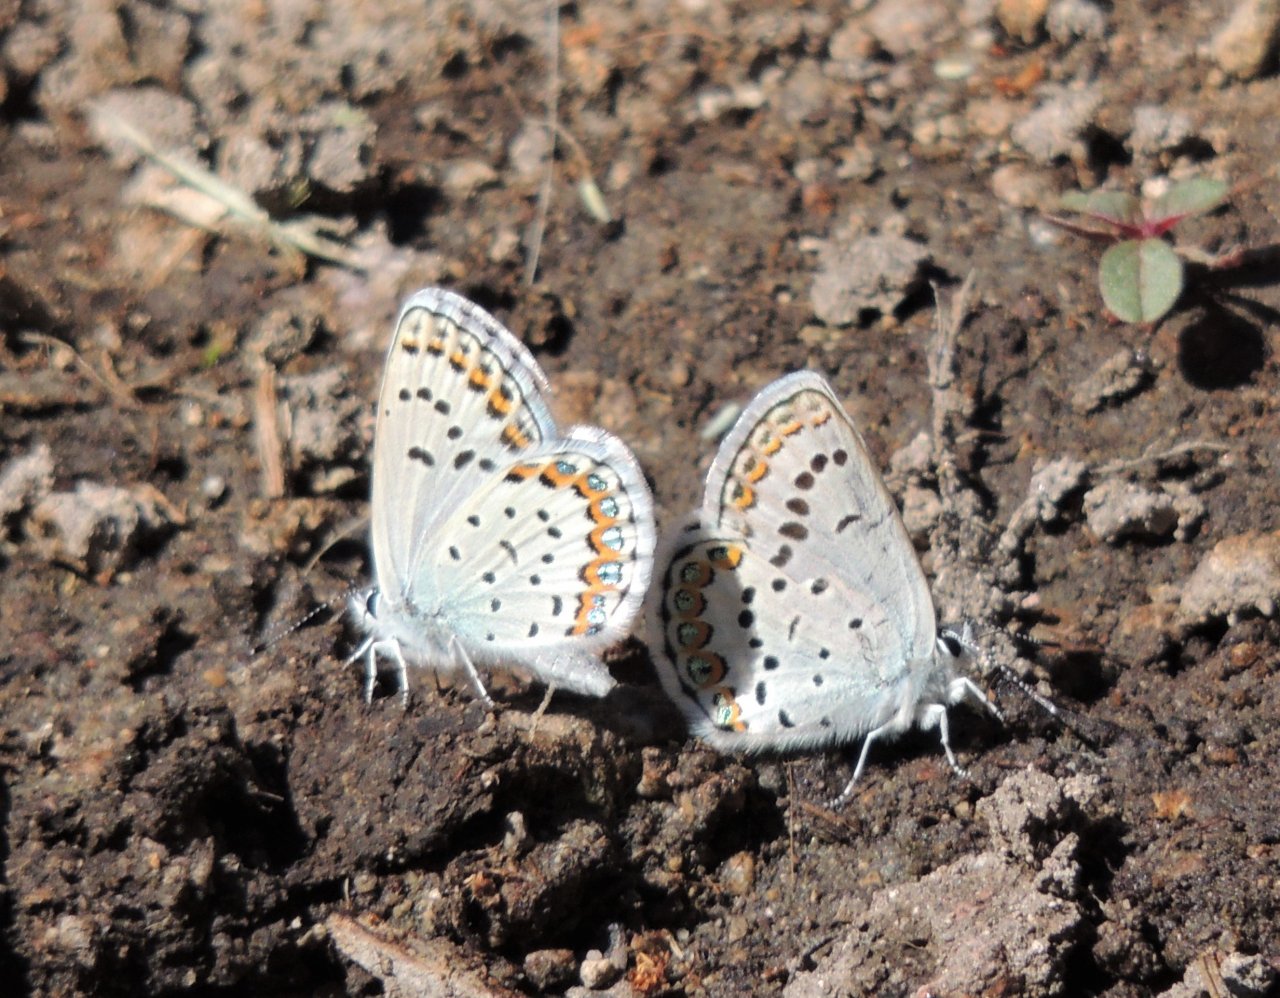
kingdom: Animalia
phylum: Arthropoda
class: Insecta
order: Lepidoptera
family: Lycaenidae
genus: Lycaeides
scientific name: Lycaeides melissa
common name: Melissa Blue
